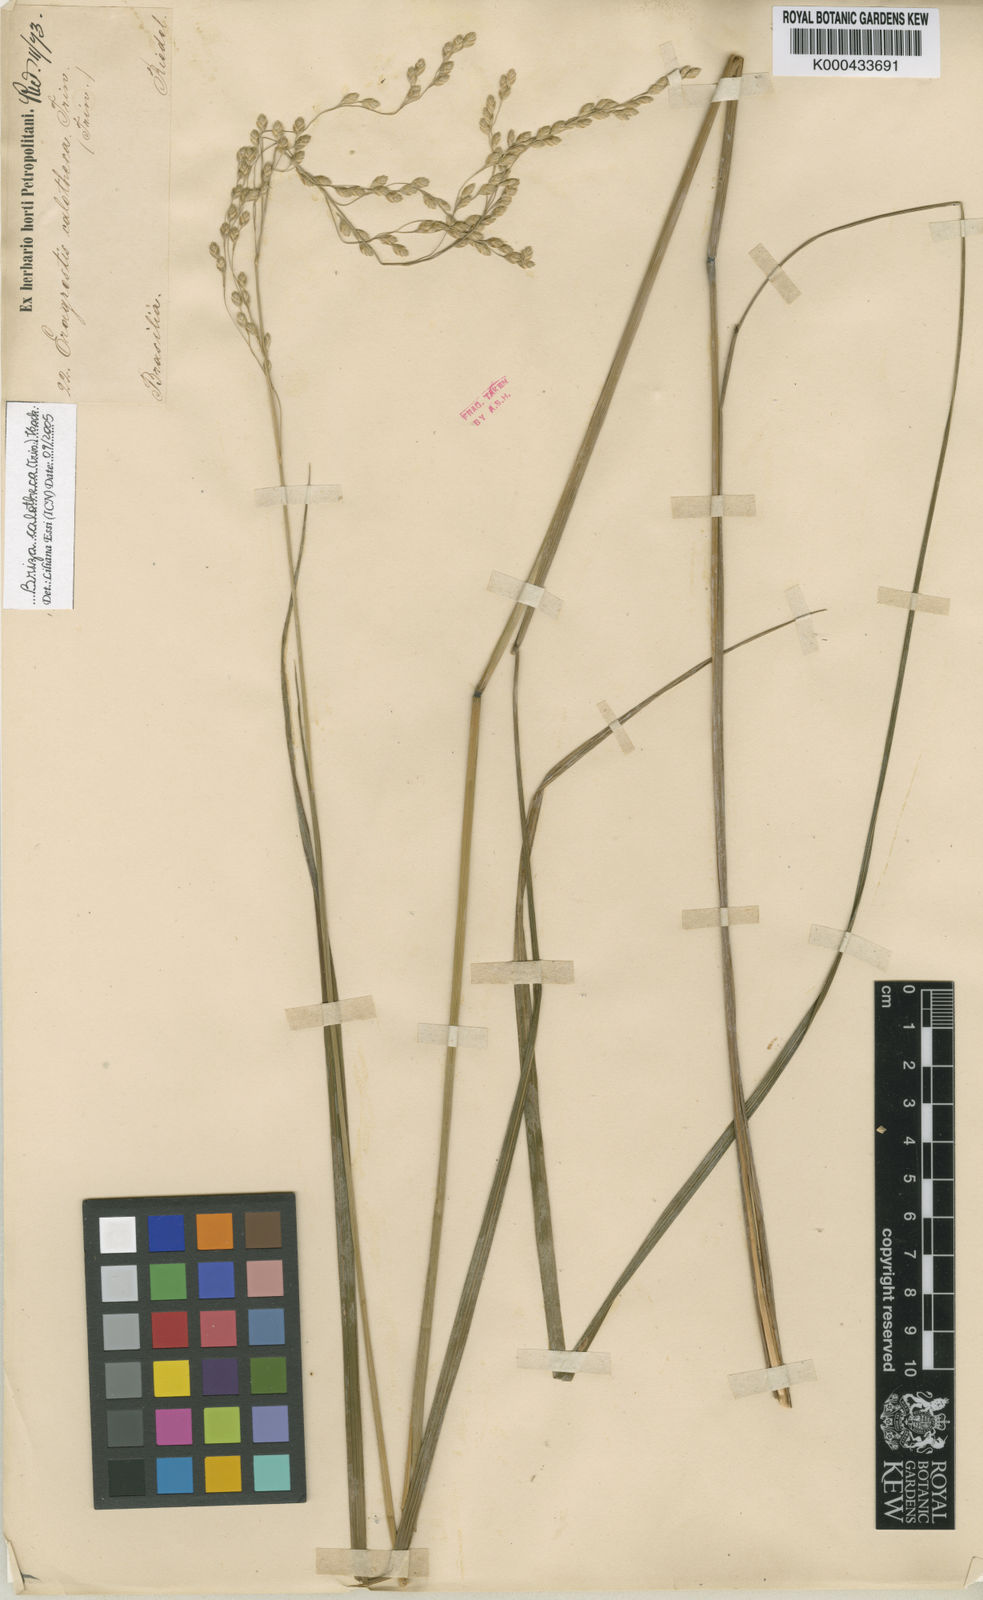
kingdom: Plantae
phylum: Tracheophyta
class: Liliopsida
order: Poales
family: Poaceae
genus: Poidium
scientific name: Poidium calotheca
